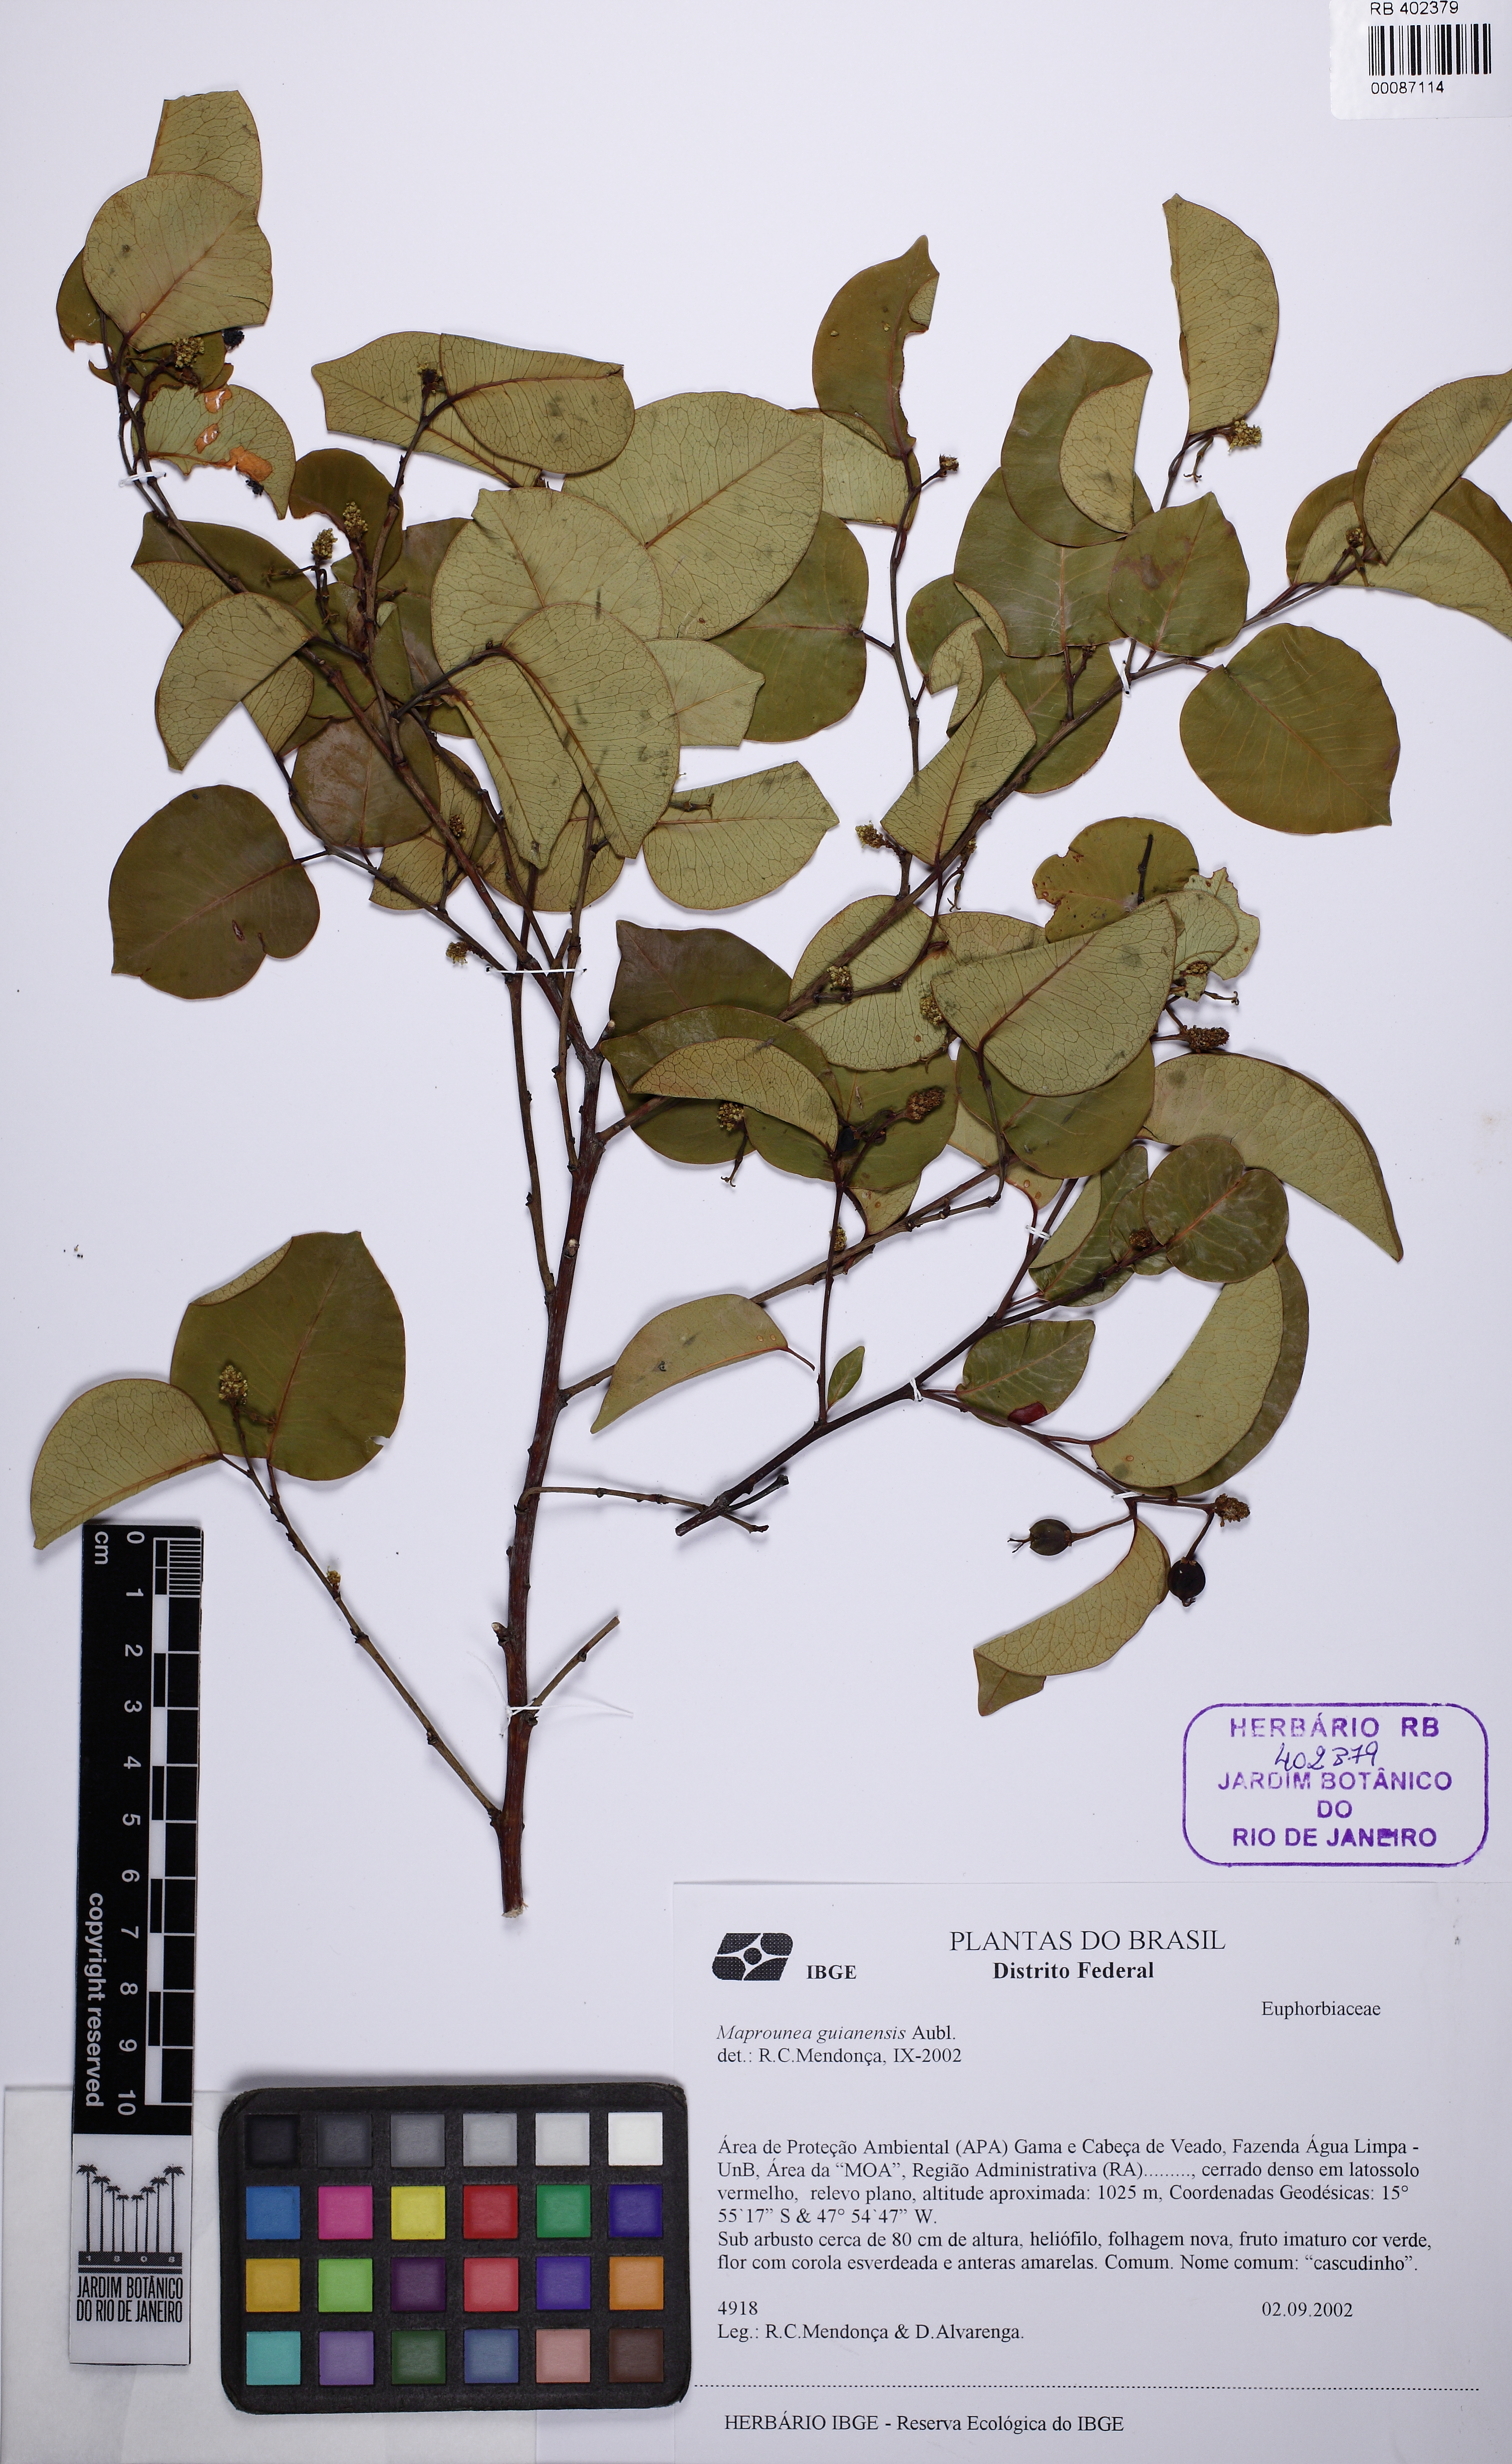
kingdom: Plantae
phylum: Tracheophyta
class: Magnoliopsida
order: Malpighiales
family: Euphorbiaceae
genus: Maprounea
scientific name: Maprounea africana
